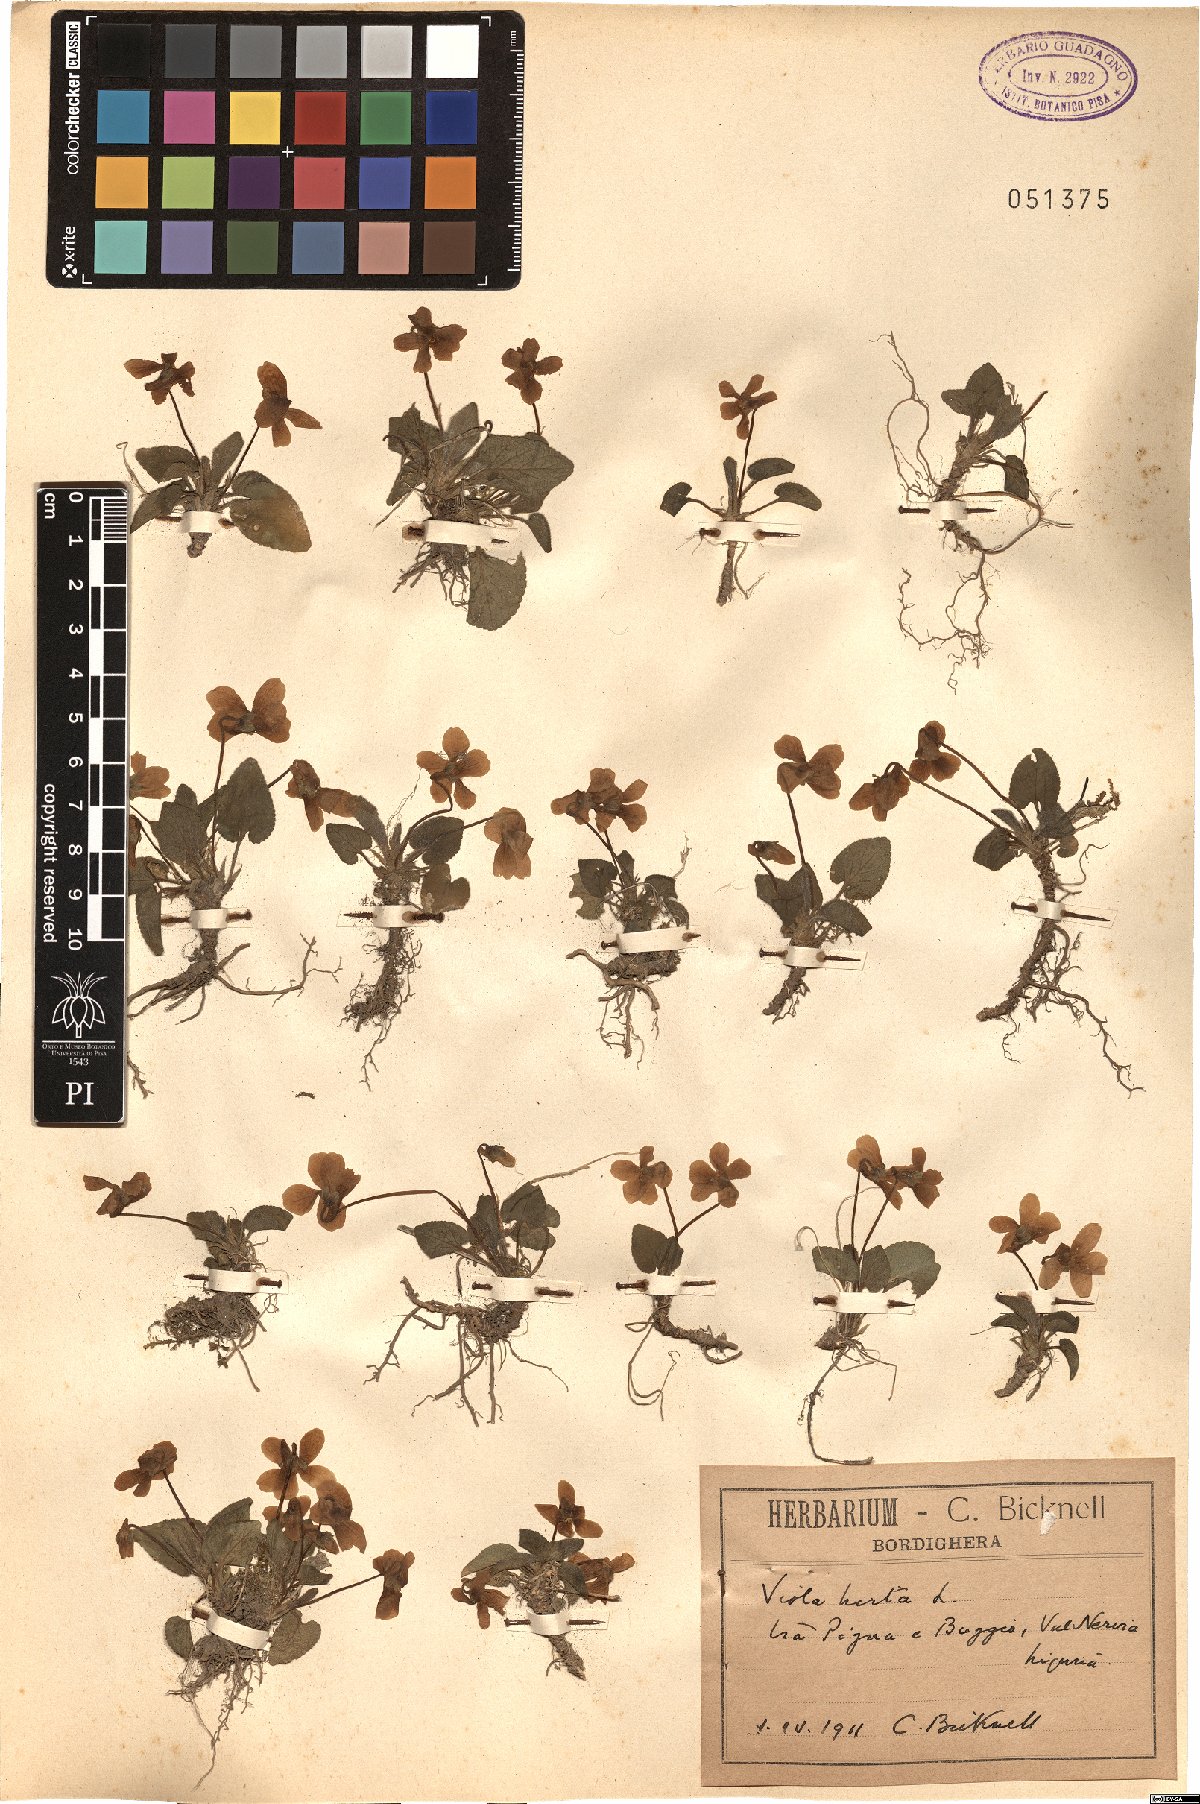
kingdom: Plantae
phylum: Tracheophyta
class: Magnoliopsida
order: Malpighiales
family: Violaceae
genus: Viola
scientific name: Viola hirta
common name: Hairy violet
